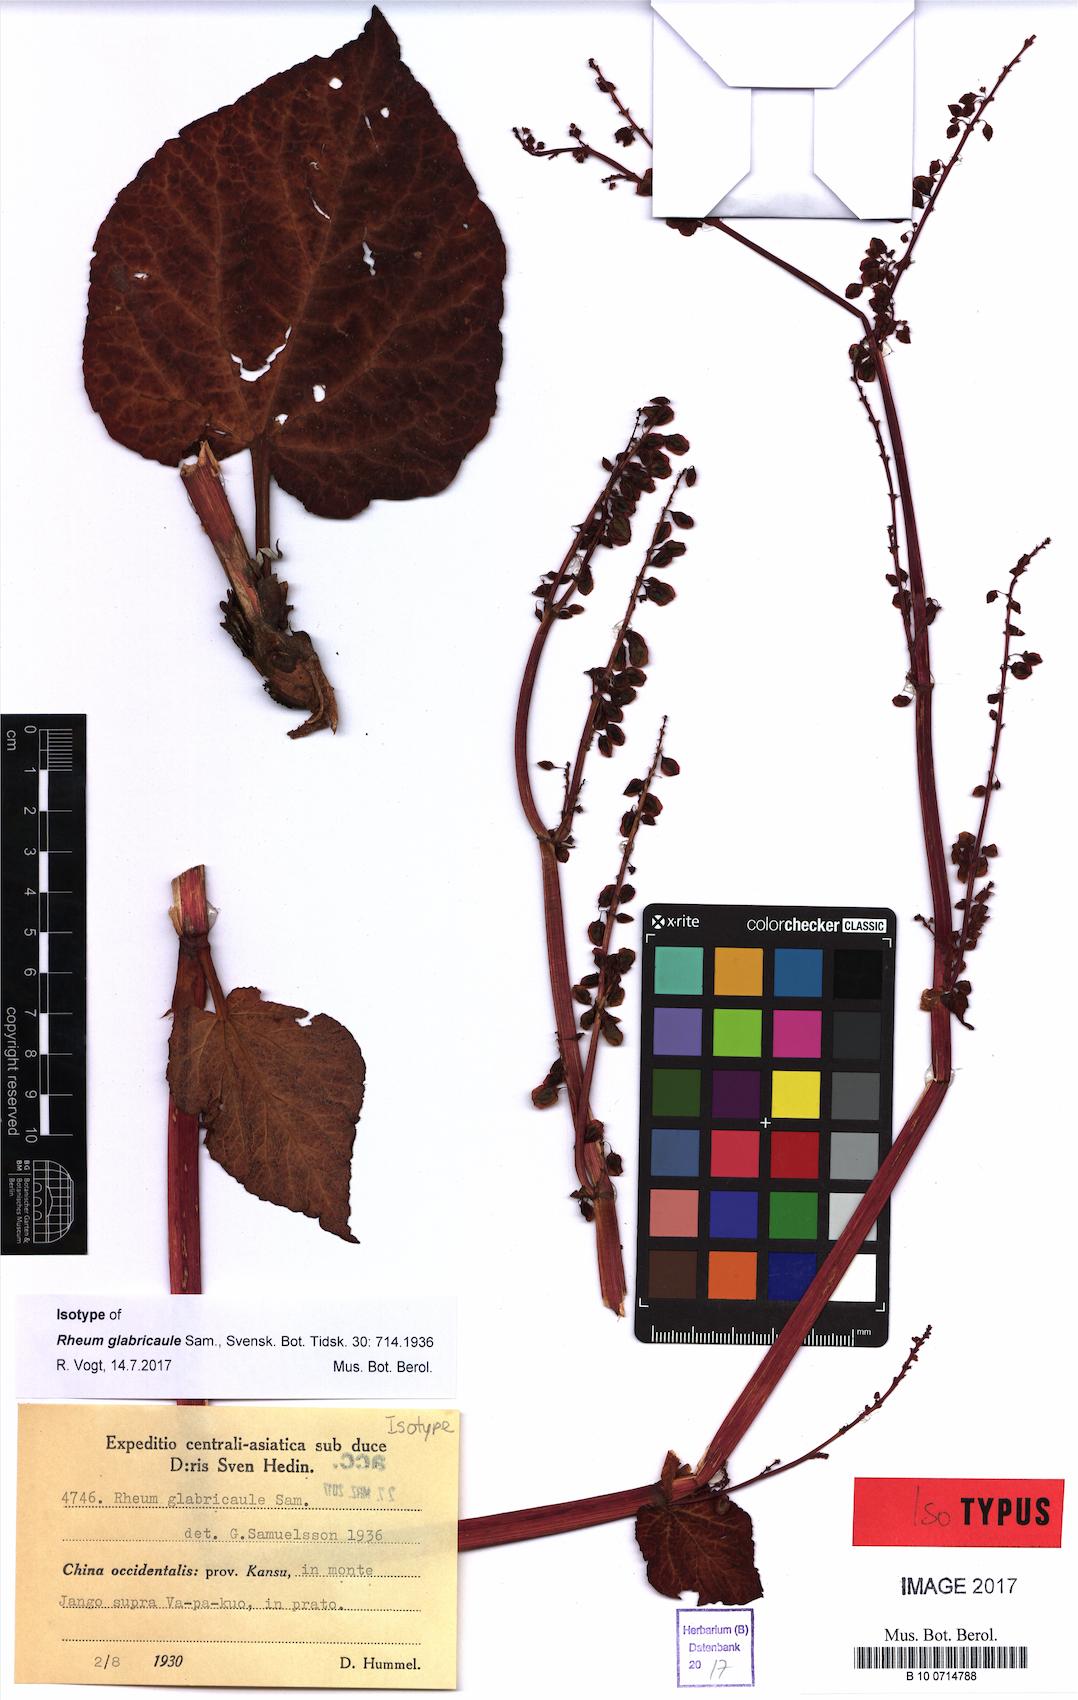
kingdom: Plantae
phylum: Tracheophyta
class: Magnoliopsida
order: Caryophyllales
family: Polygonaceae
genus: Rheum
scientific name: Rheum glabricaule
